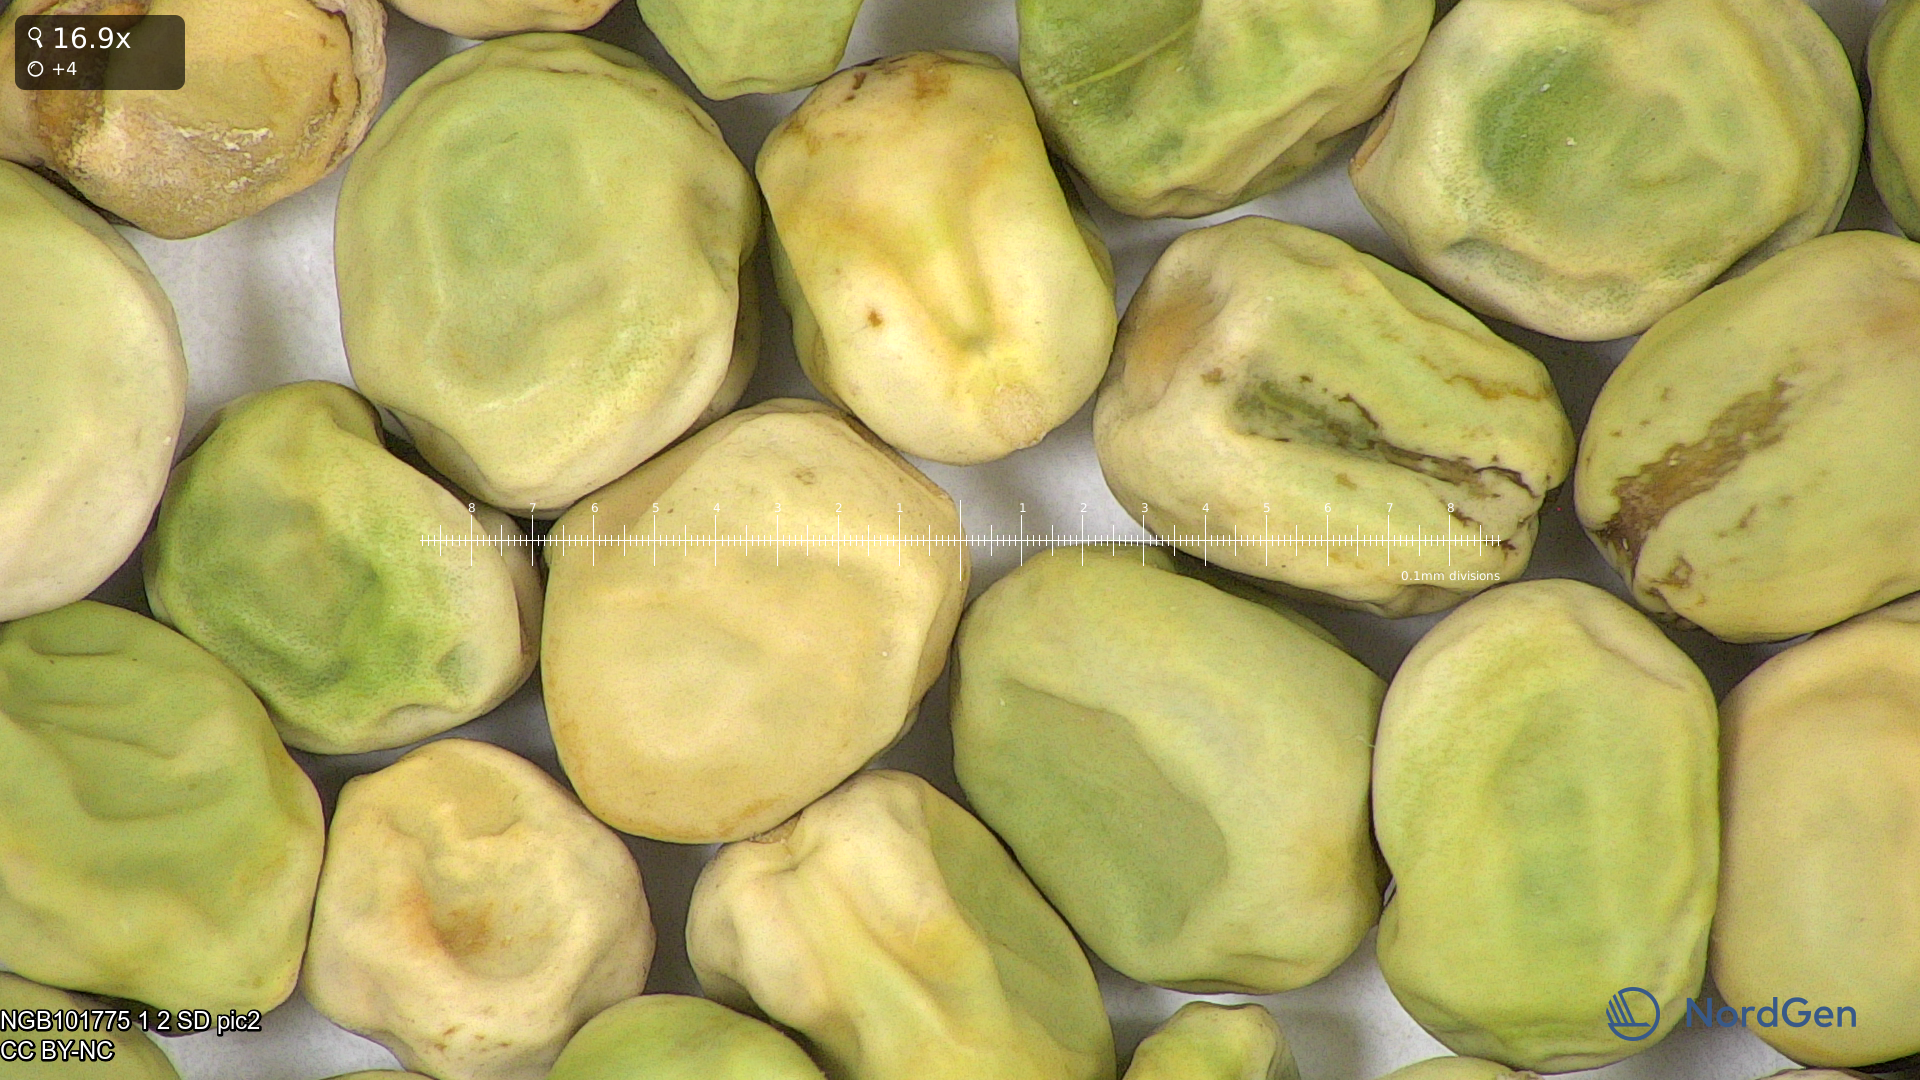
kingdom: Plantae
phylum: Tracheophyta
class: Magnoliopsida
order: Fabales
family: Fabaceae
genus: Lathyrus
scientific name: Lathyrus oleraceus
